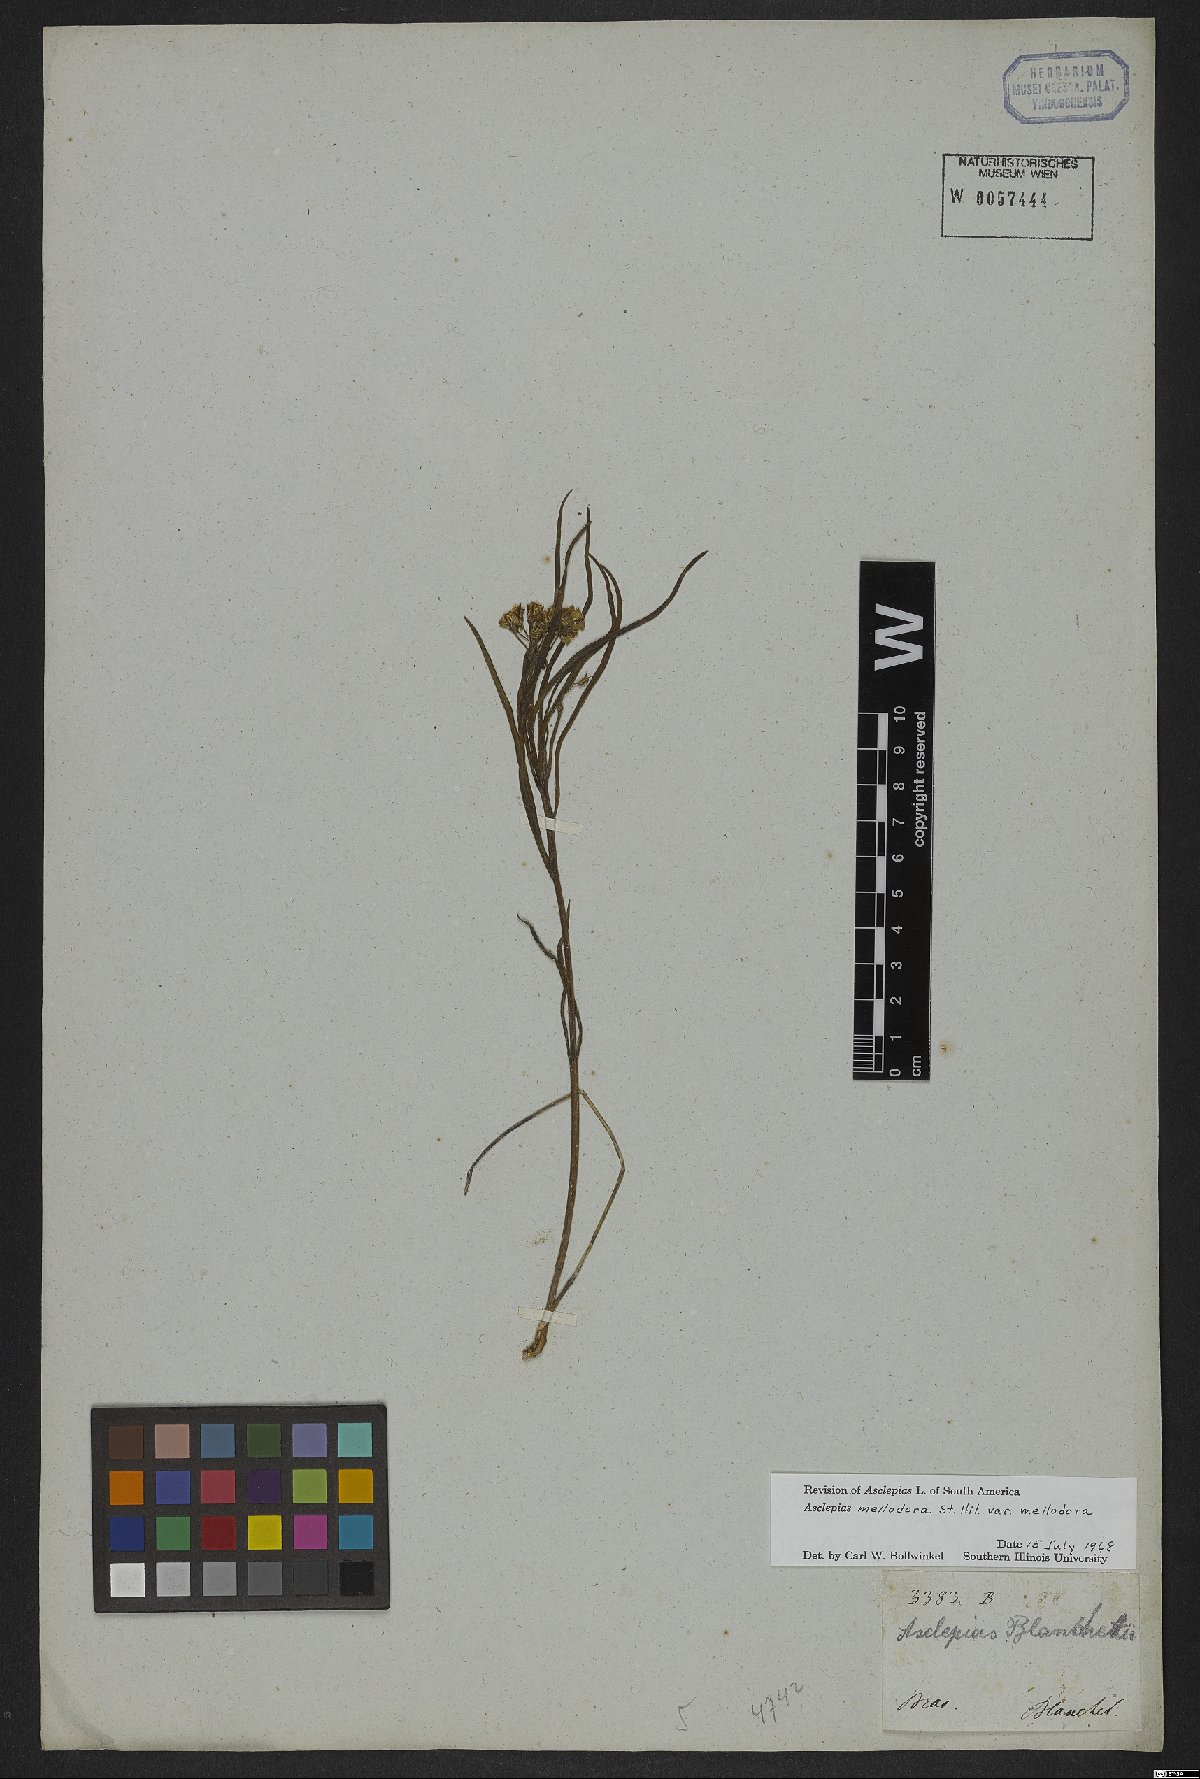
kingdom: Plantae
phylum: Tracheophyta
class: Magnoliopsida
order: Gentianales
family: Apocynaceae
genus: Asclepias
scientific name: Asclepias mellodora
